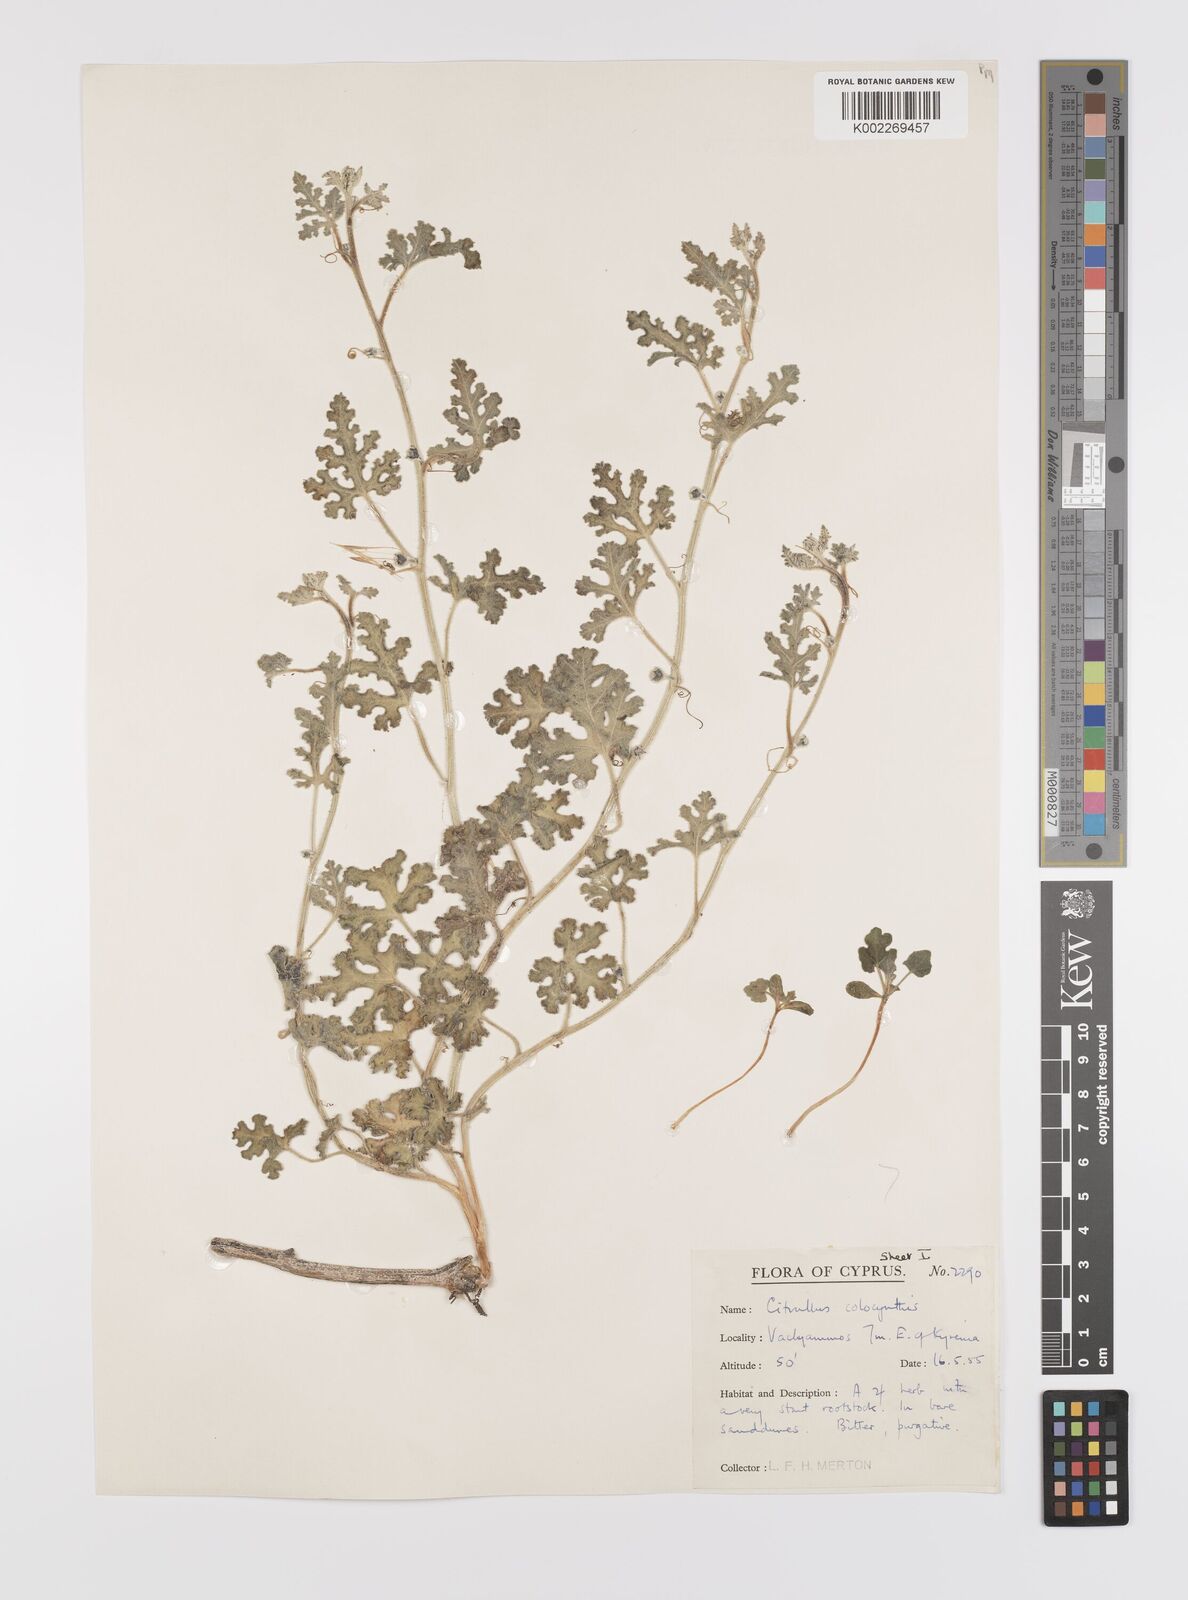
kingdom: Plantae
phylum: Tracheophyta
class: Magnoliopsida
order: Cucurbitales
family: Cucurbitaceae
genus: Citrullus
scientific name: Citrullus colocynthis
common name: Colocynth
